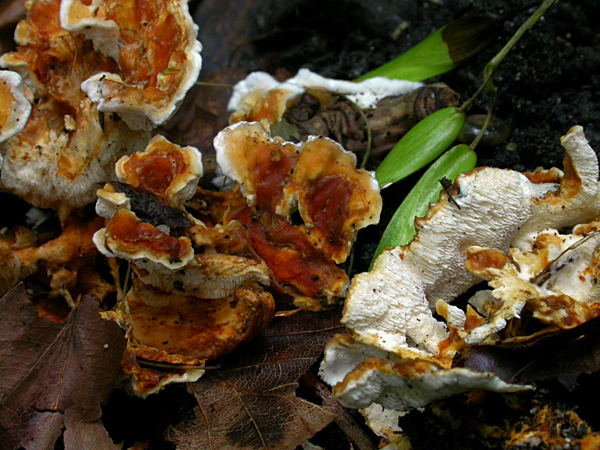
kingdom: Fungi
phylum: Basidiomycota
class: Agaricomycetes
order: Polyporales
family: Steccherinaceae
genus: Loweomyces
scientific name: Loweomyces wynneae
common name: krybende blødporesvamp
